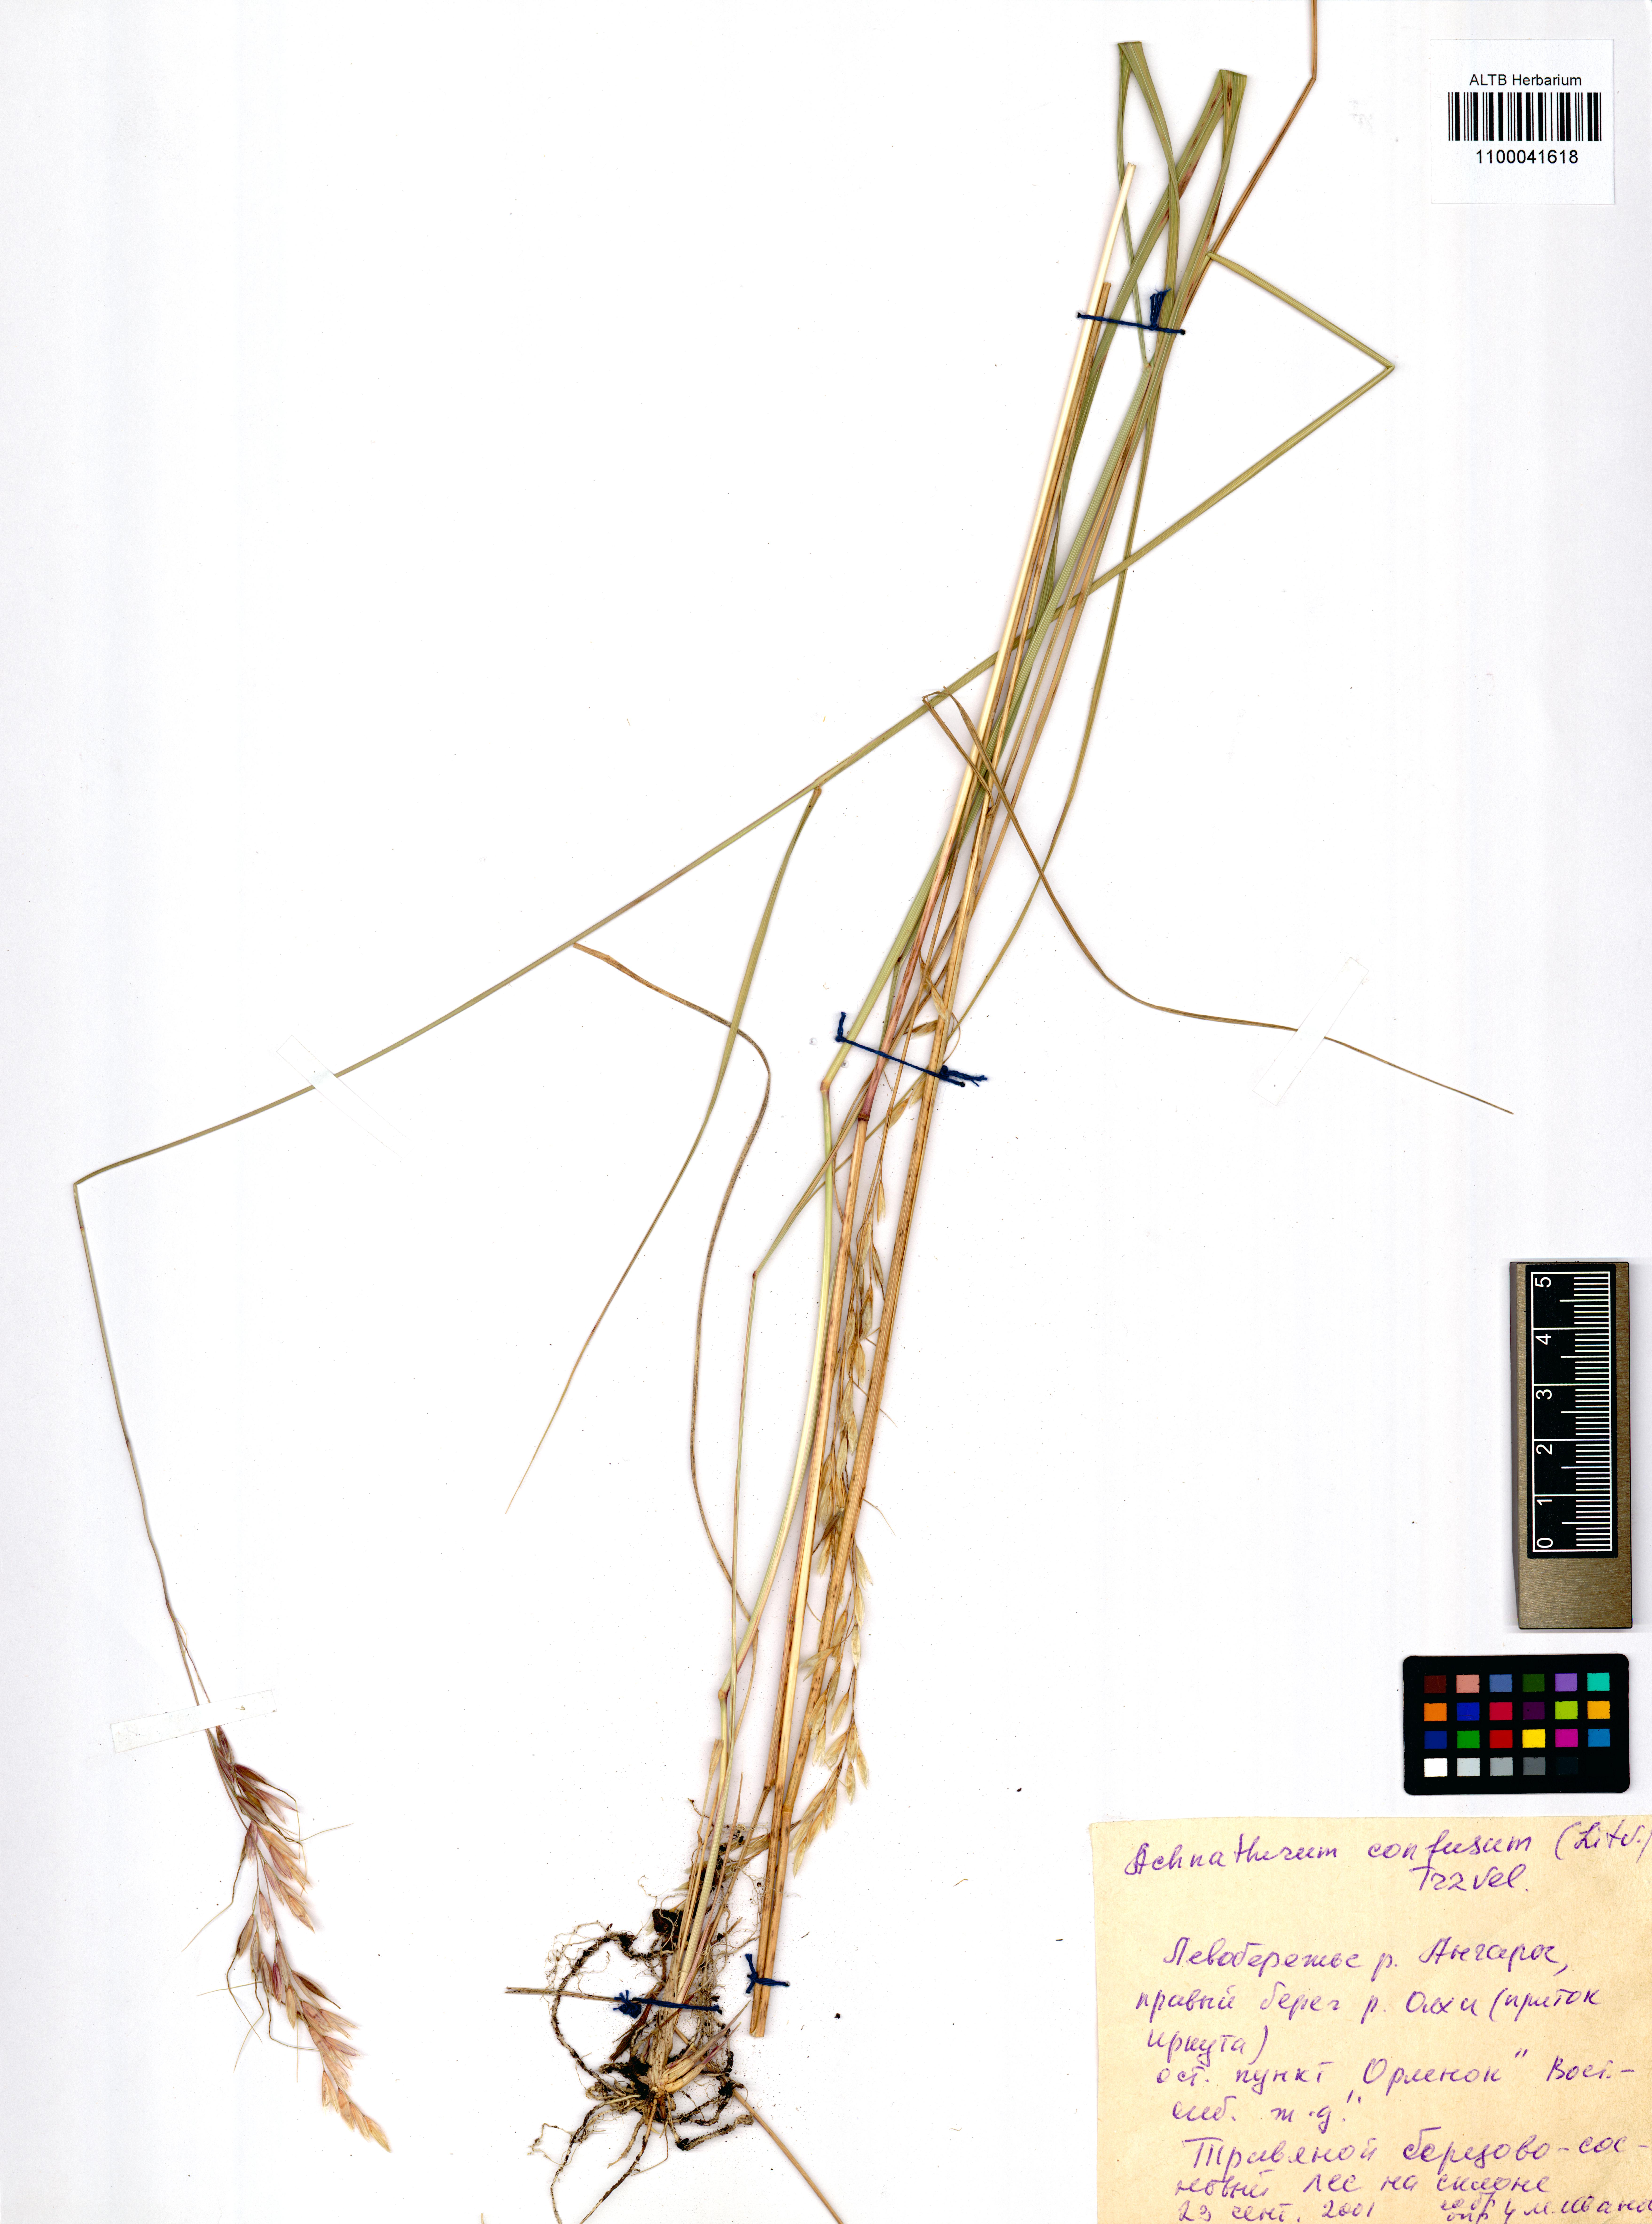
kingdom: Plantae
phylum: Tracheophyta
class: Liliopsida
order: Poales
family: Poaceae
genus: Achnatherum
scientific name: Achnatherum confusum
